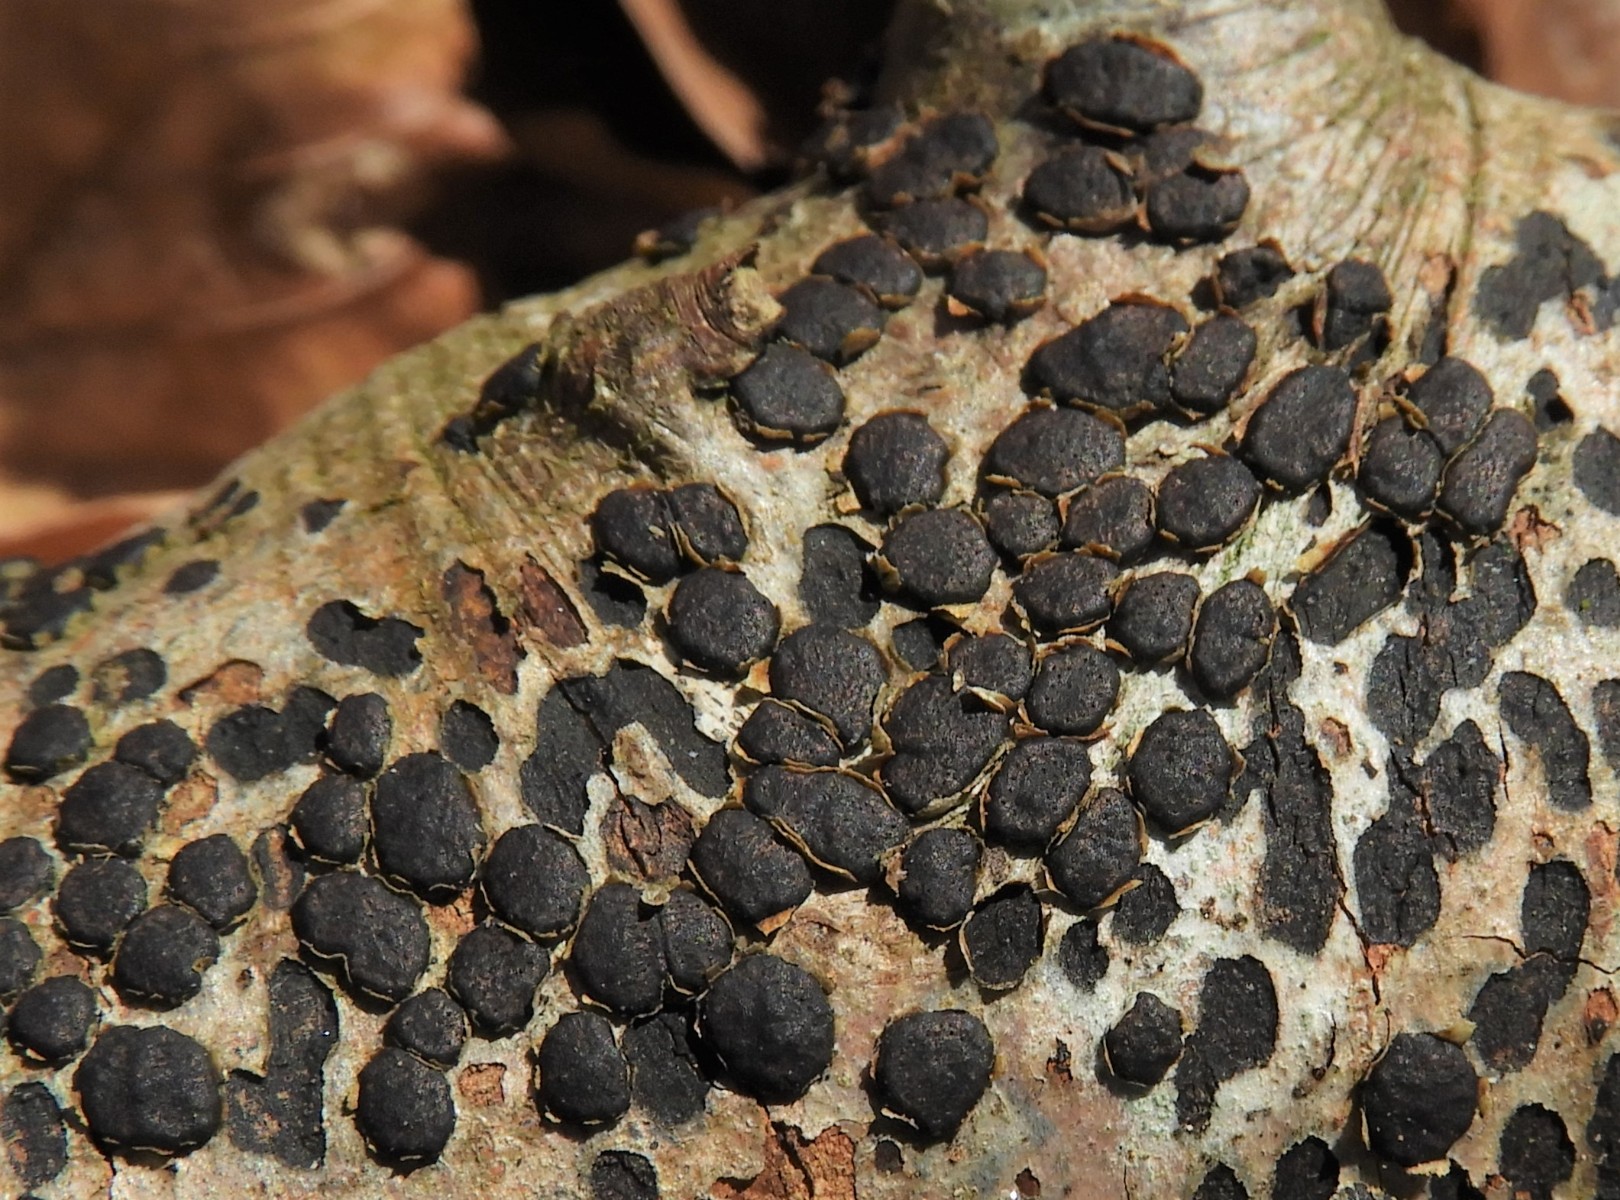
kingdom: Fungi
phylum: Ascomycota
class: Sordariomycetes
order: Xylariales
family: Diatrypaceae
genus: Diatrype
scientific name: Diatrype disciformis
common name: kant-kulskorpe
